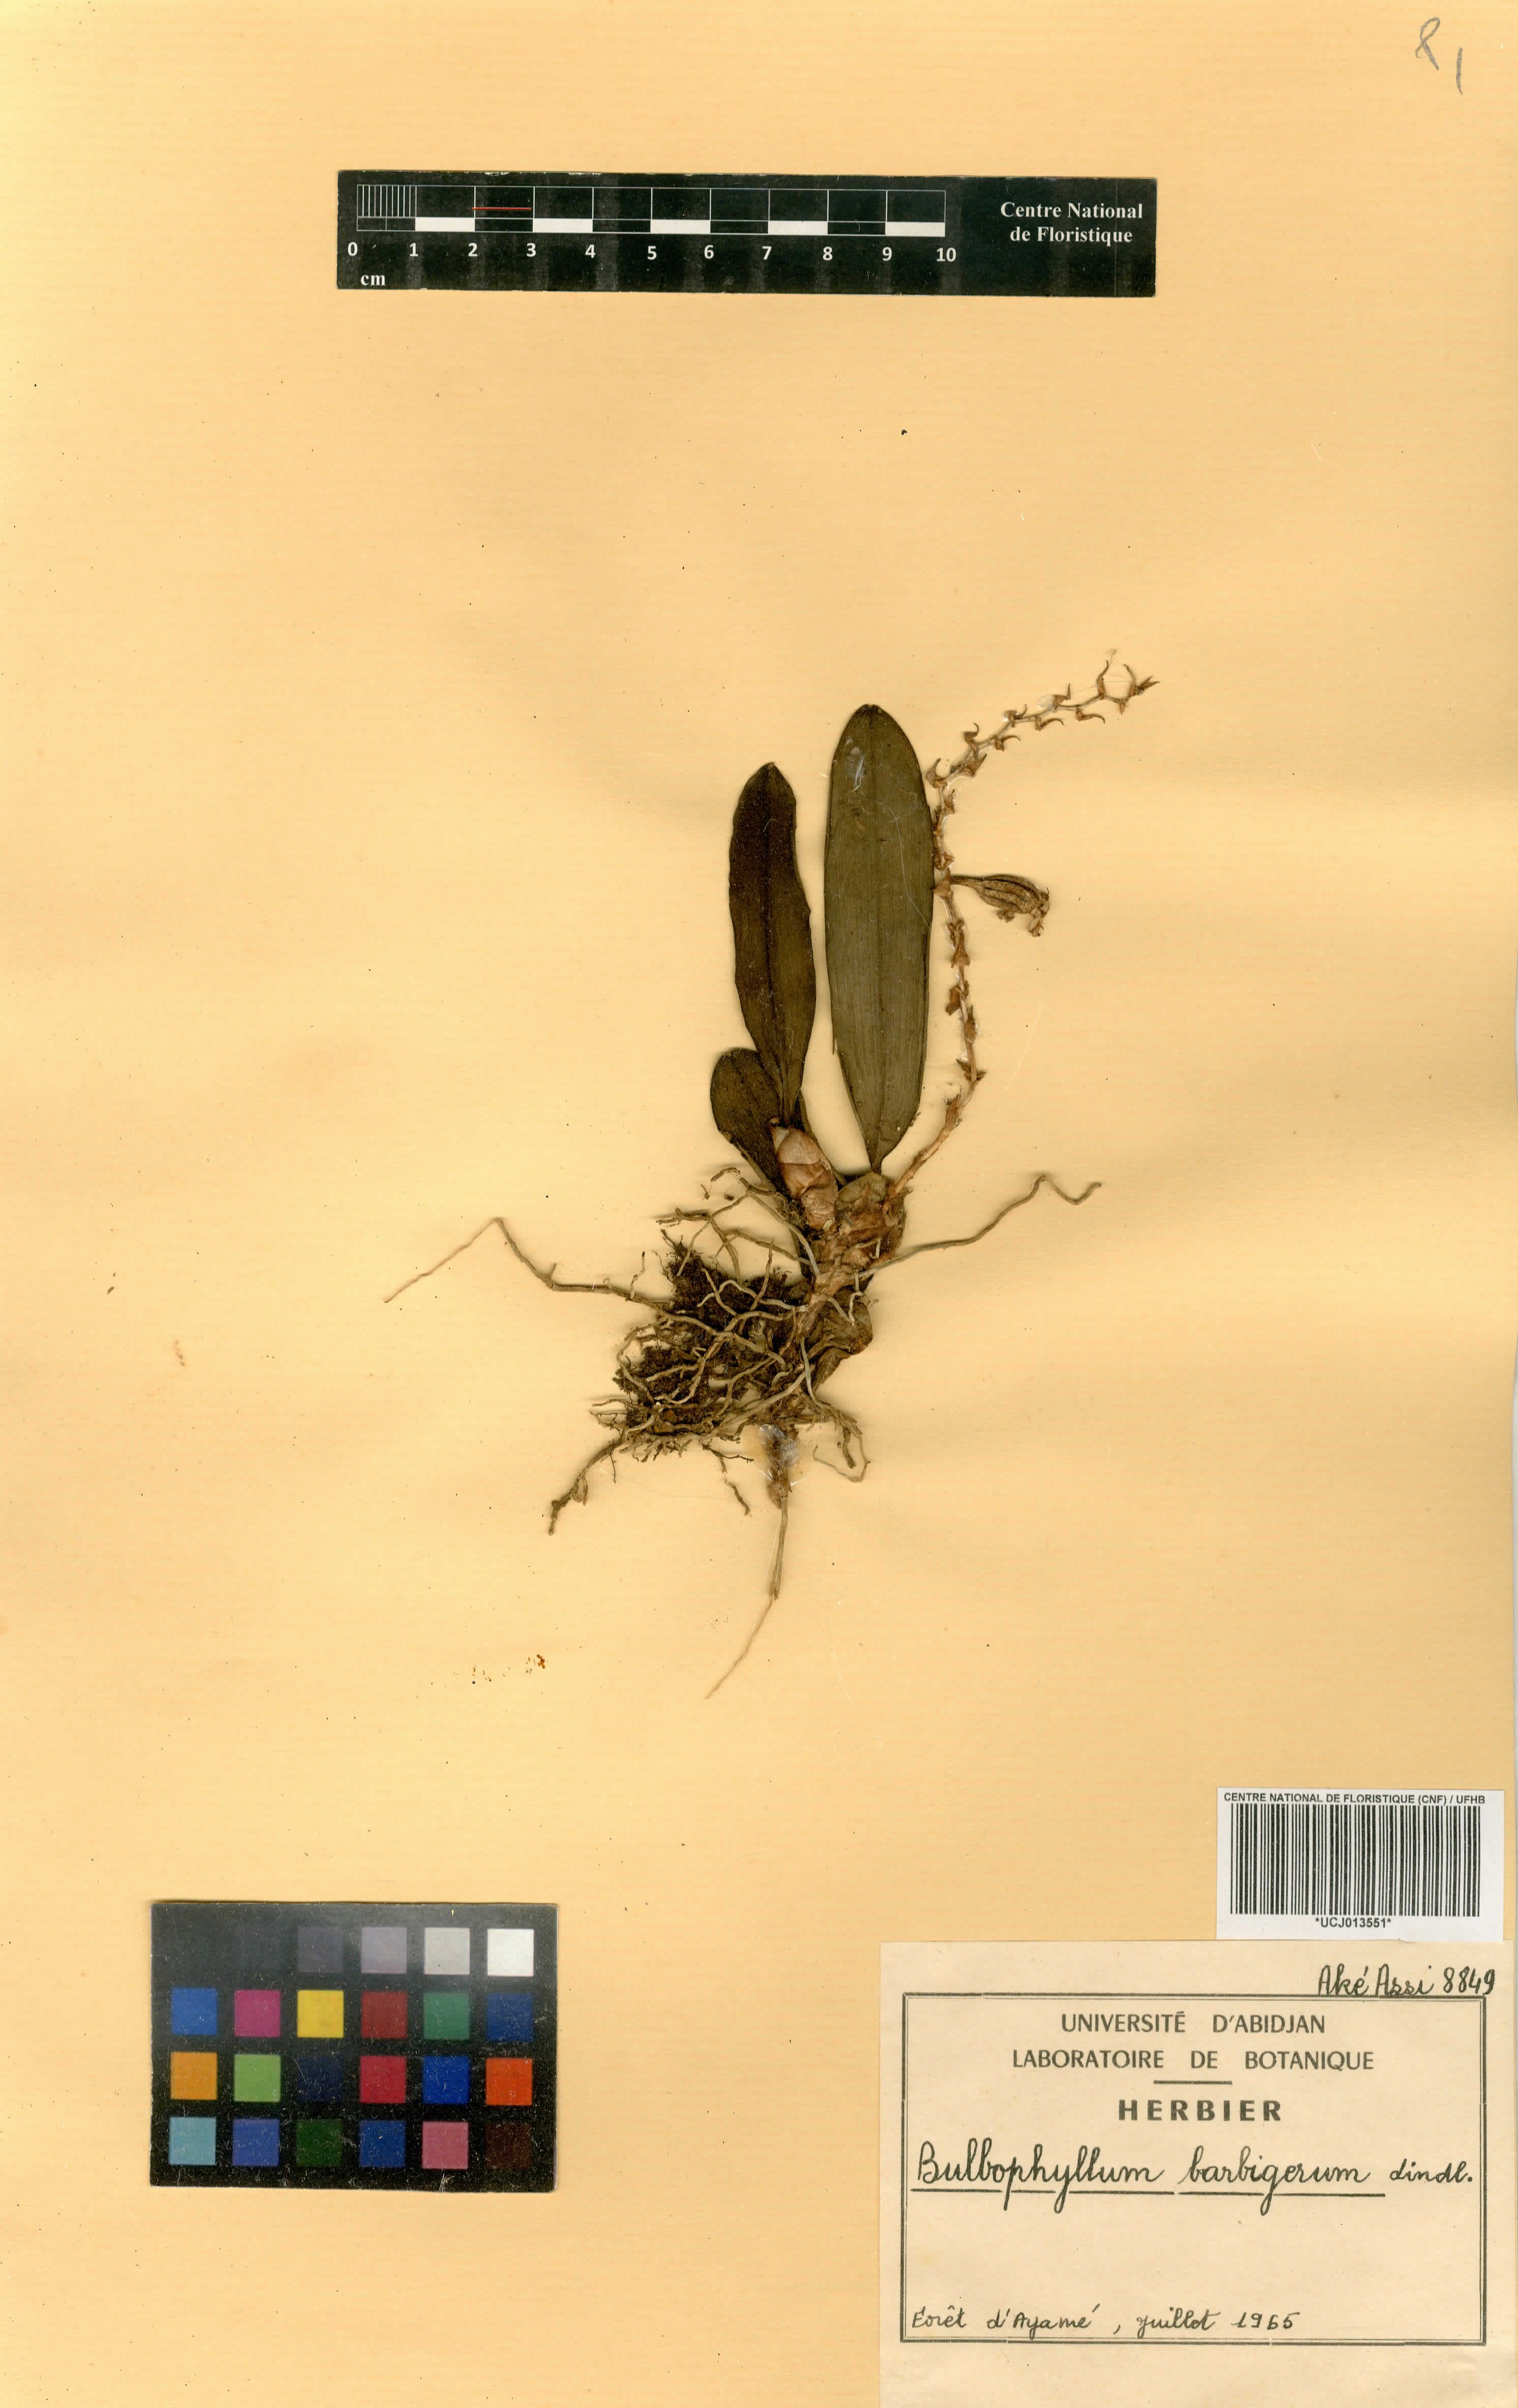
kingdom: Plantae
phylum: Tracheophyta
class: Liliopsida
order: Asparagales
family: Orchidaceae
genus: Bulbophyllum
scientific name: Bulbophyllum barbigerum
